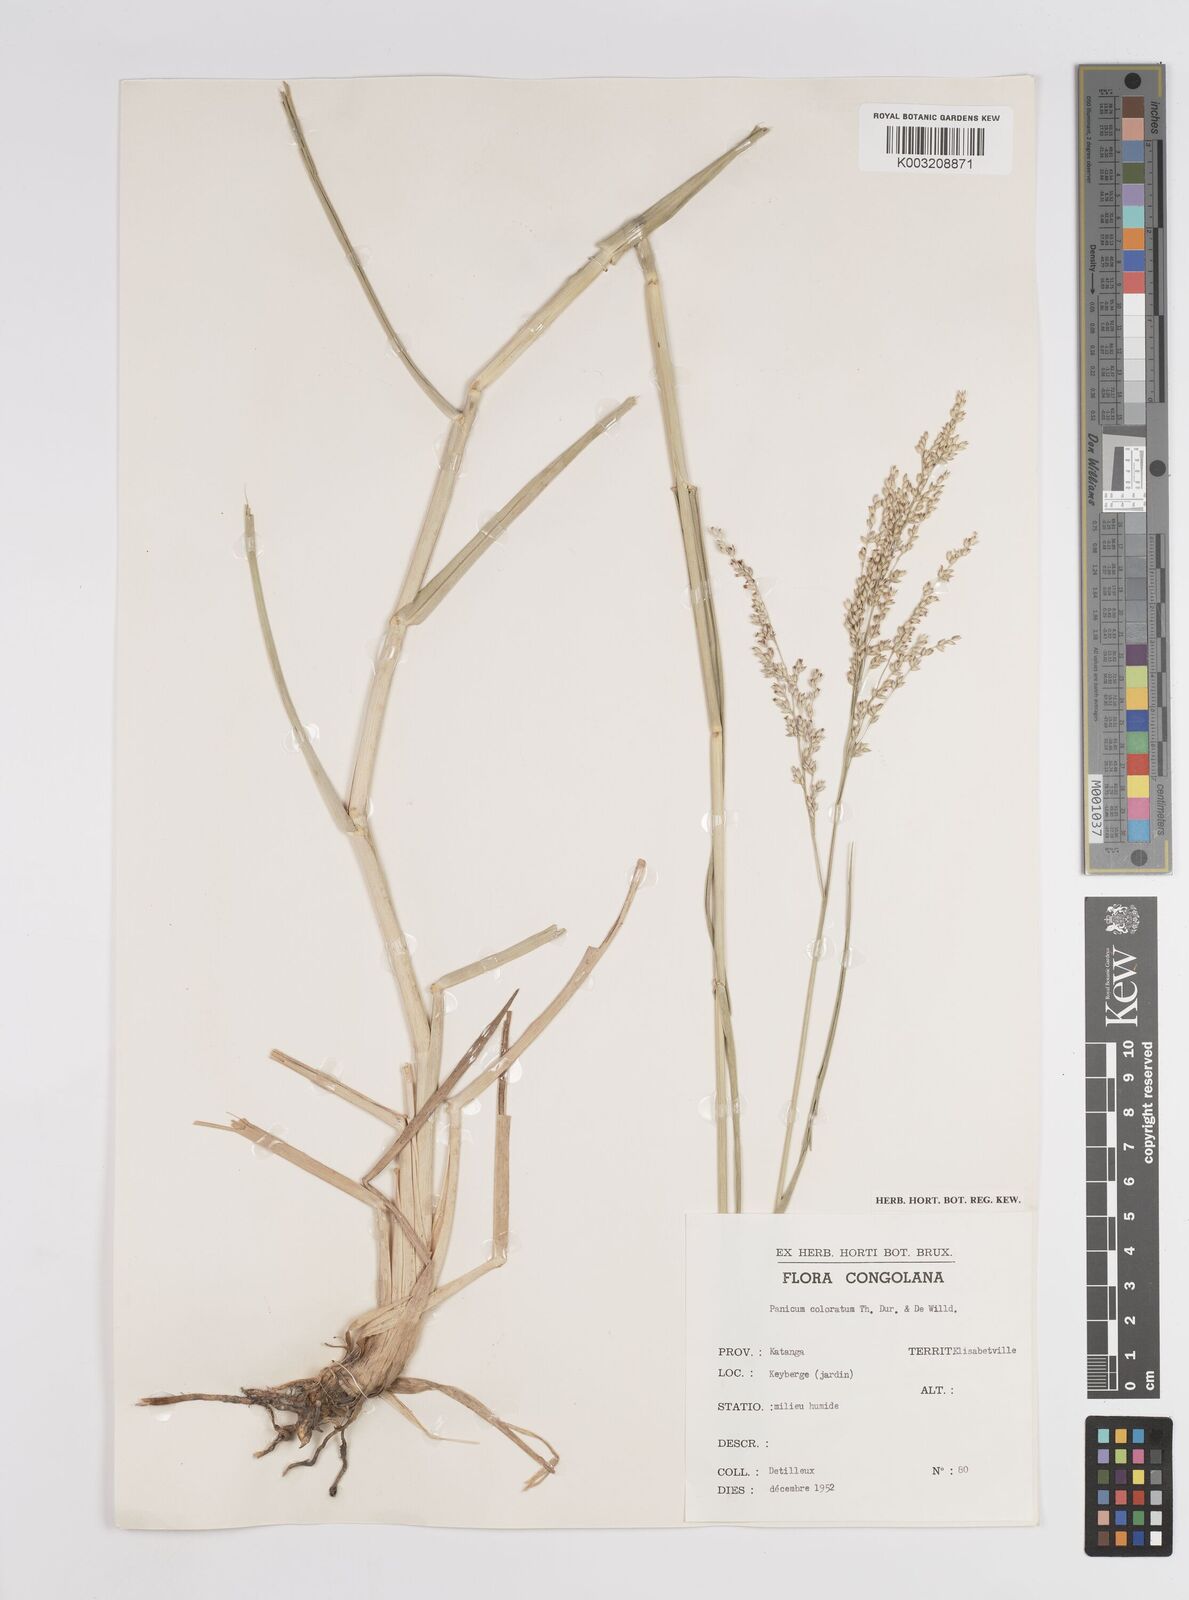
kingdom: Plantae
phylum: Tracheophyta
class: Liliopsida
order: Poales
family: Poaceae
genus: Panicum
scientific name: Panicum coloratum
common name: Kleingrass
